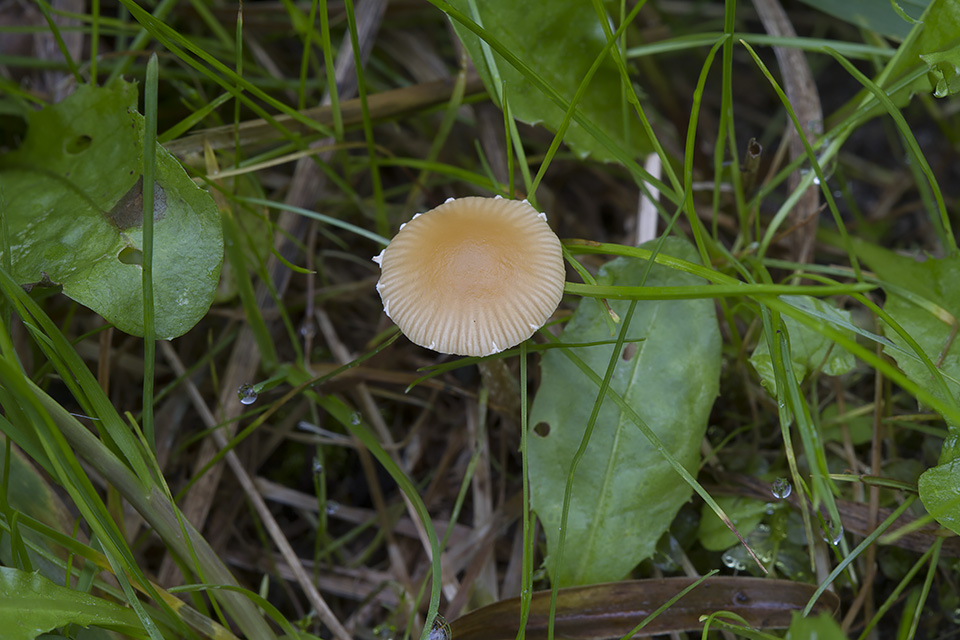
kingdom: Fungi
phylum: Basidiomycota
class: Agaricomycetes
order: Agaricales
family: Bolbitiaceae
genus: Conocybe
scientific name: Conocybe velata
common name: tandet dansehat
